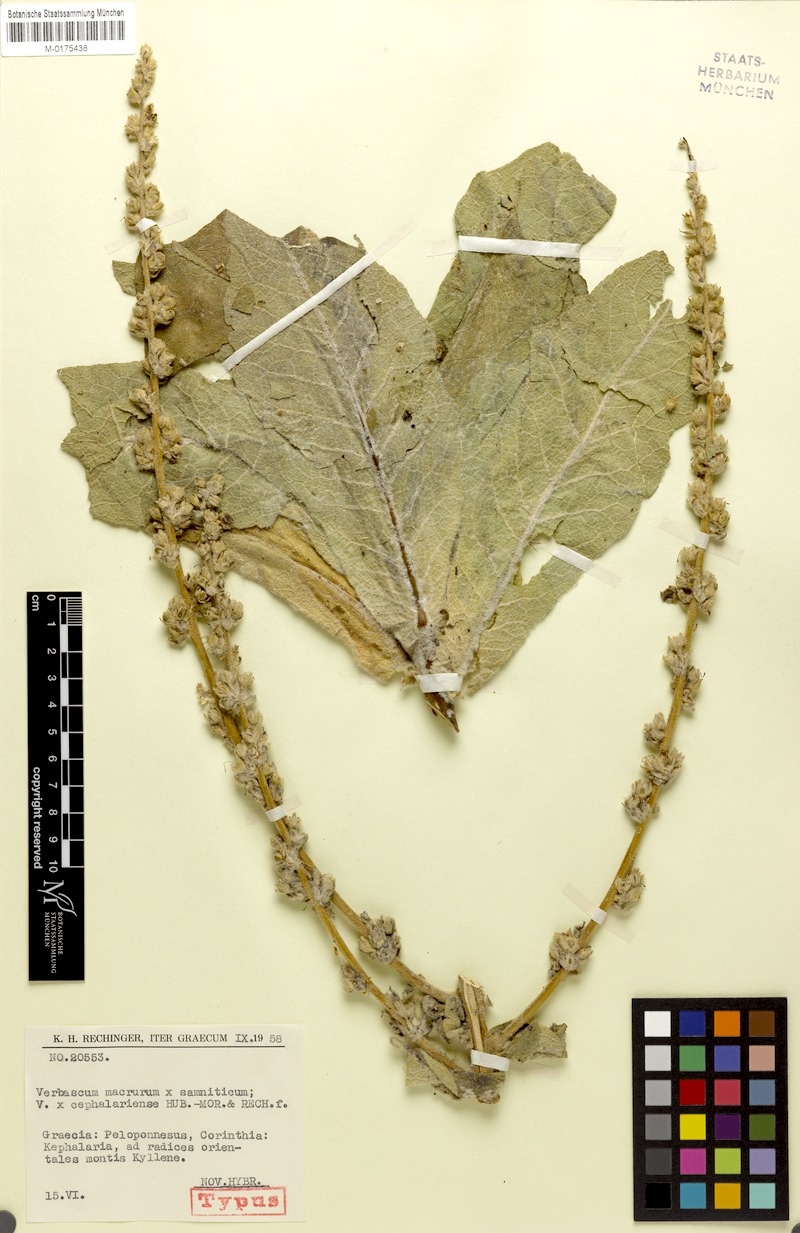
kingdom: Plantae
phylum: Tracheophyta
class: Magnoliopsida
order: Lamiales
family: Scrophulariaceae
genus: Verbascum
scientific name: Verbascum cephalariense
